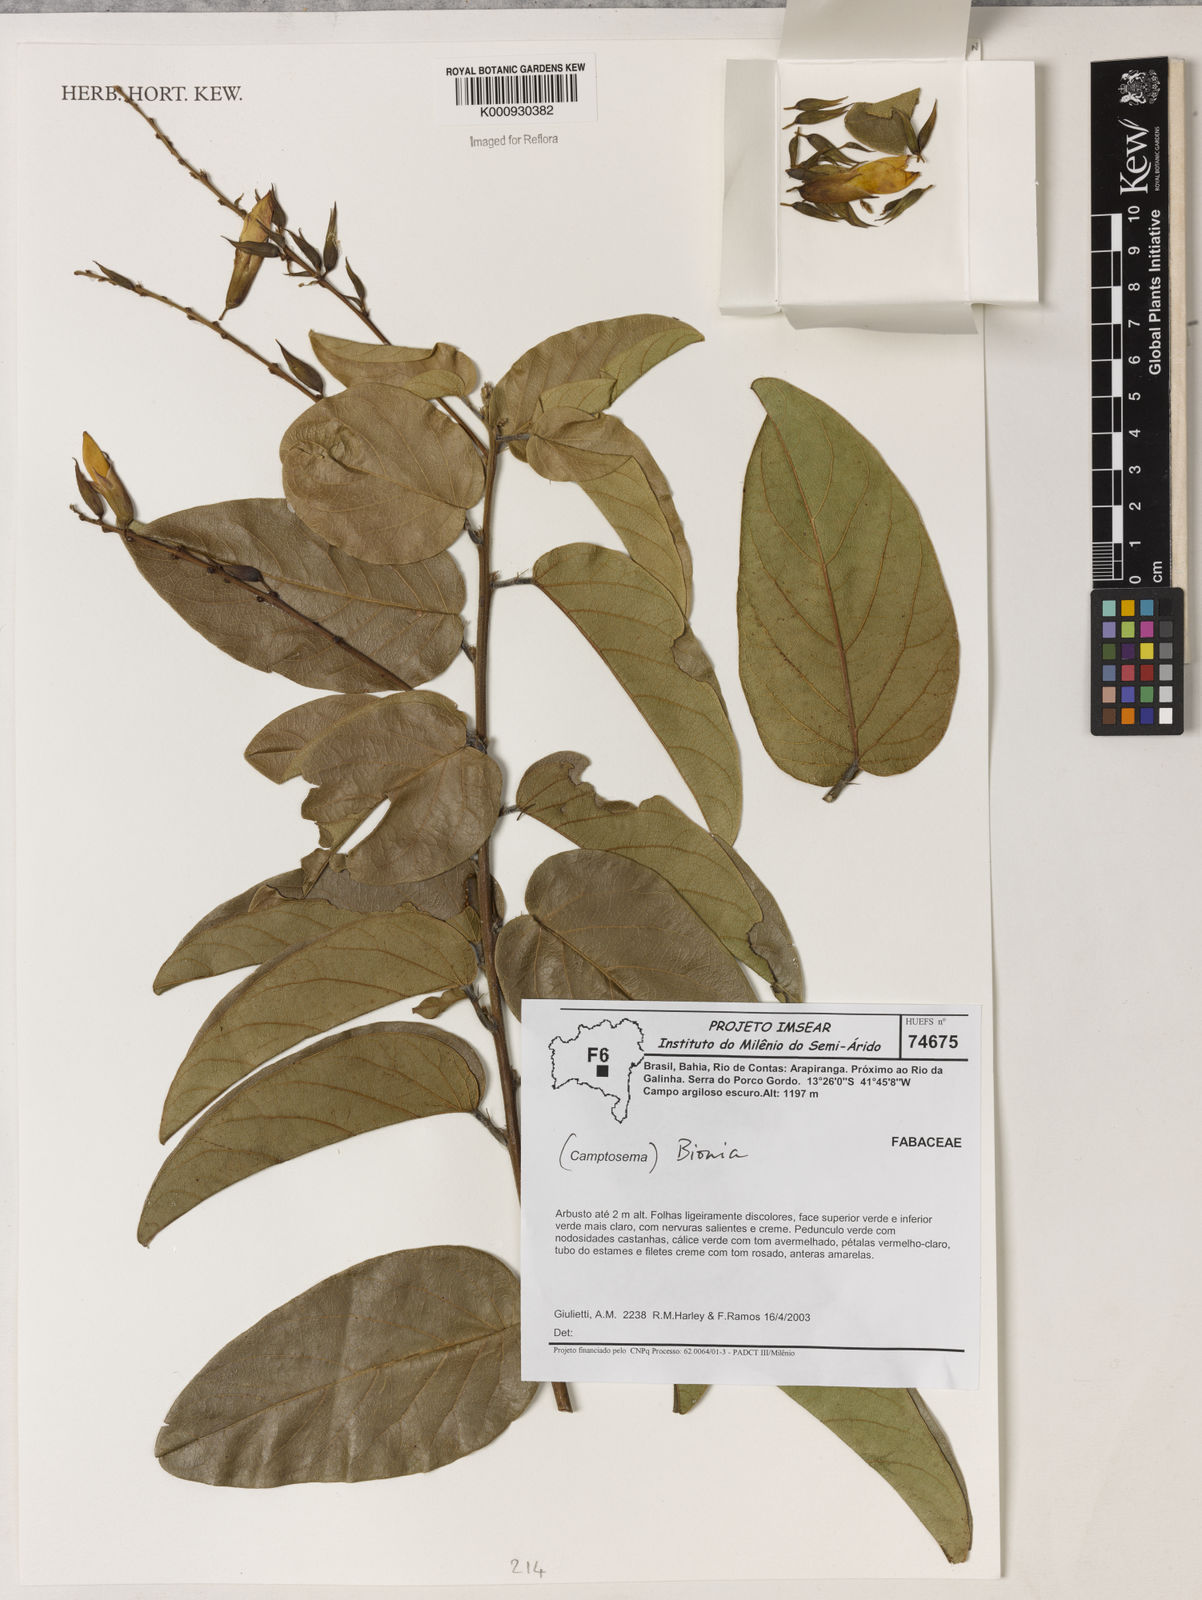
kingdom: Plantae
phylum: Tracheophyta
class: Magnoliopsida
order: Fabales
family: Fabaceae
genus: Camptosema
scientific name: Camptosema
